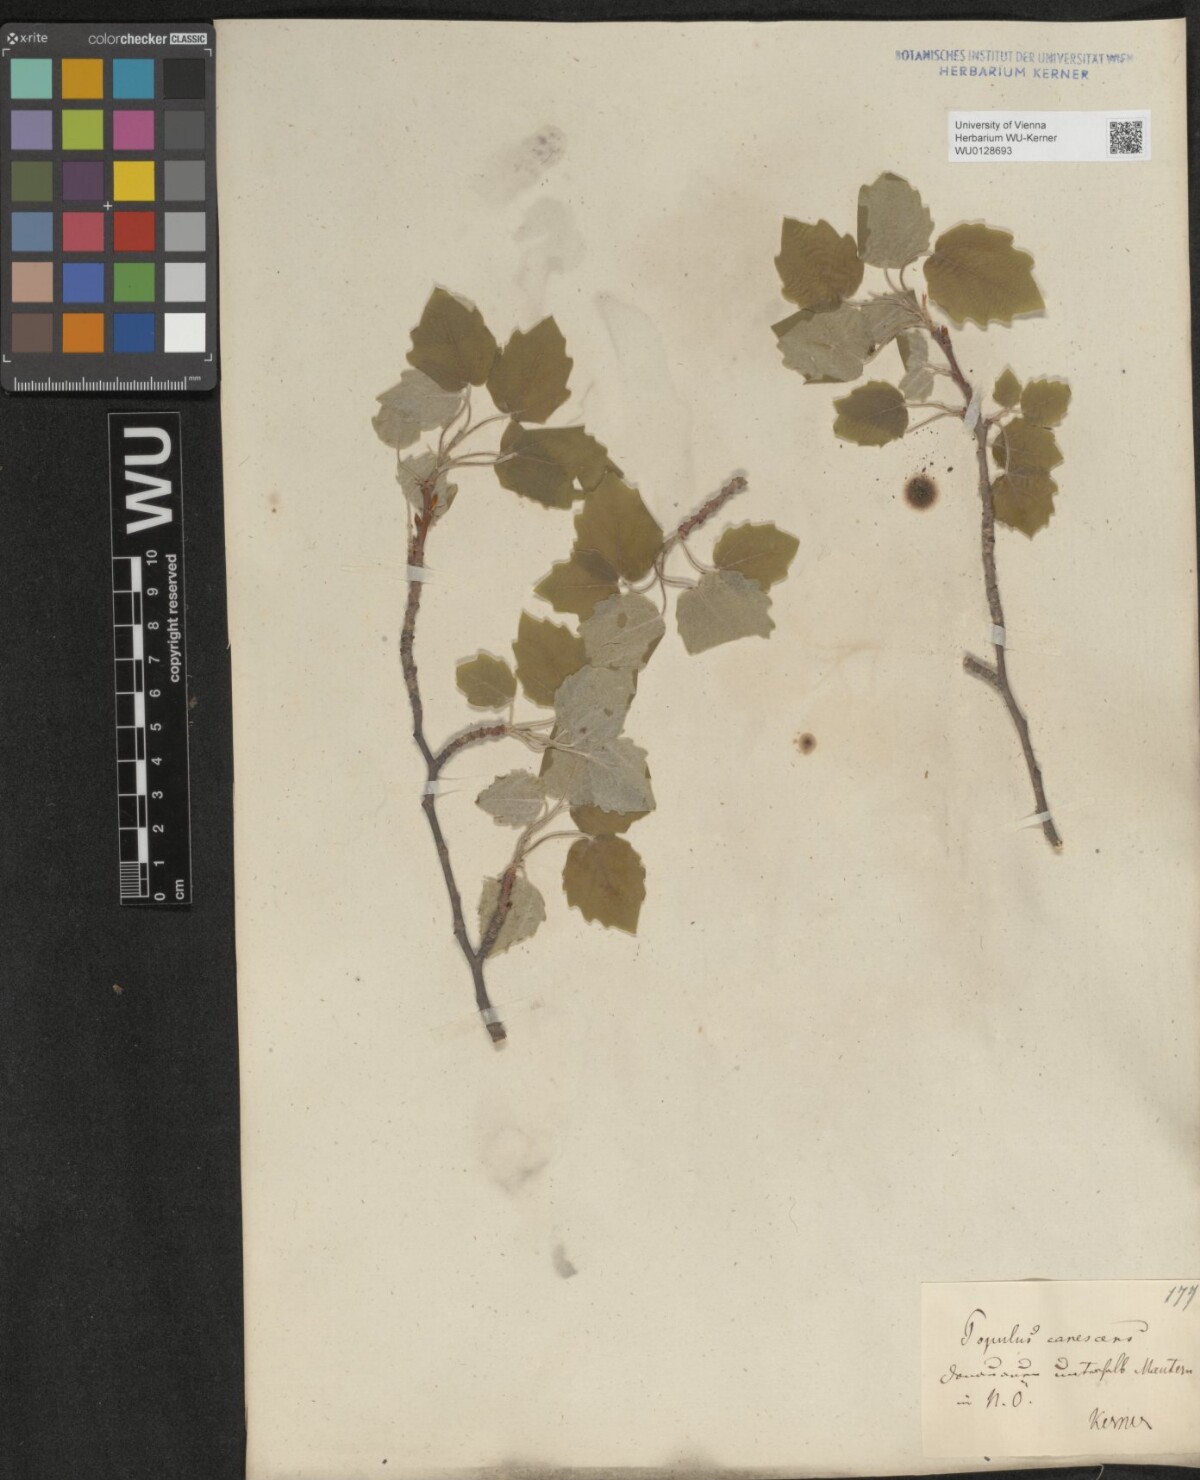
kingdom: Plantae
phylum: Tracheophyta
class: Magnoliopsida
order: Malpighiales
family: Salicaceae
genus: Populus
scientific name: Populus canescens
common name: Gray poplar
